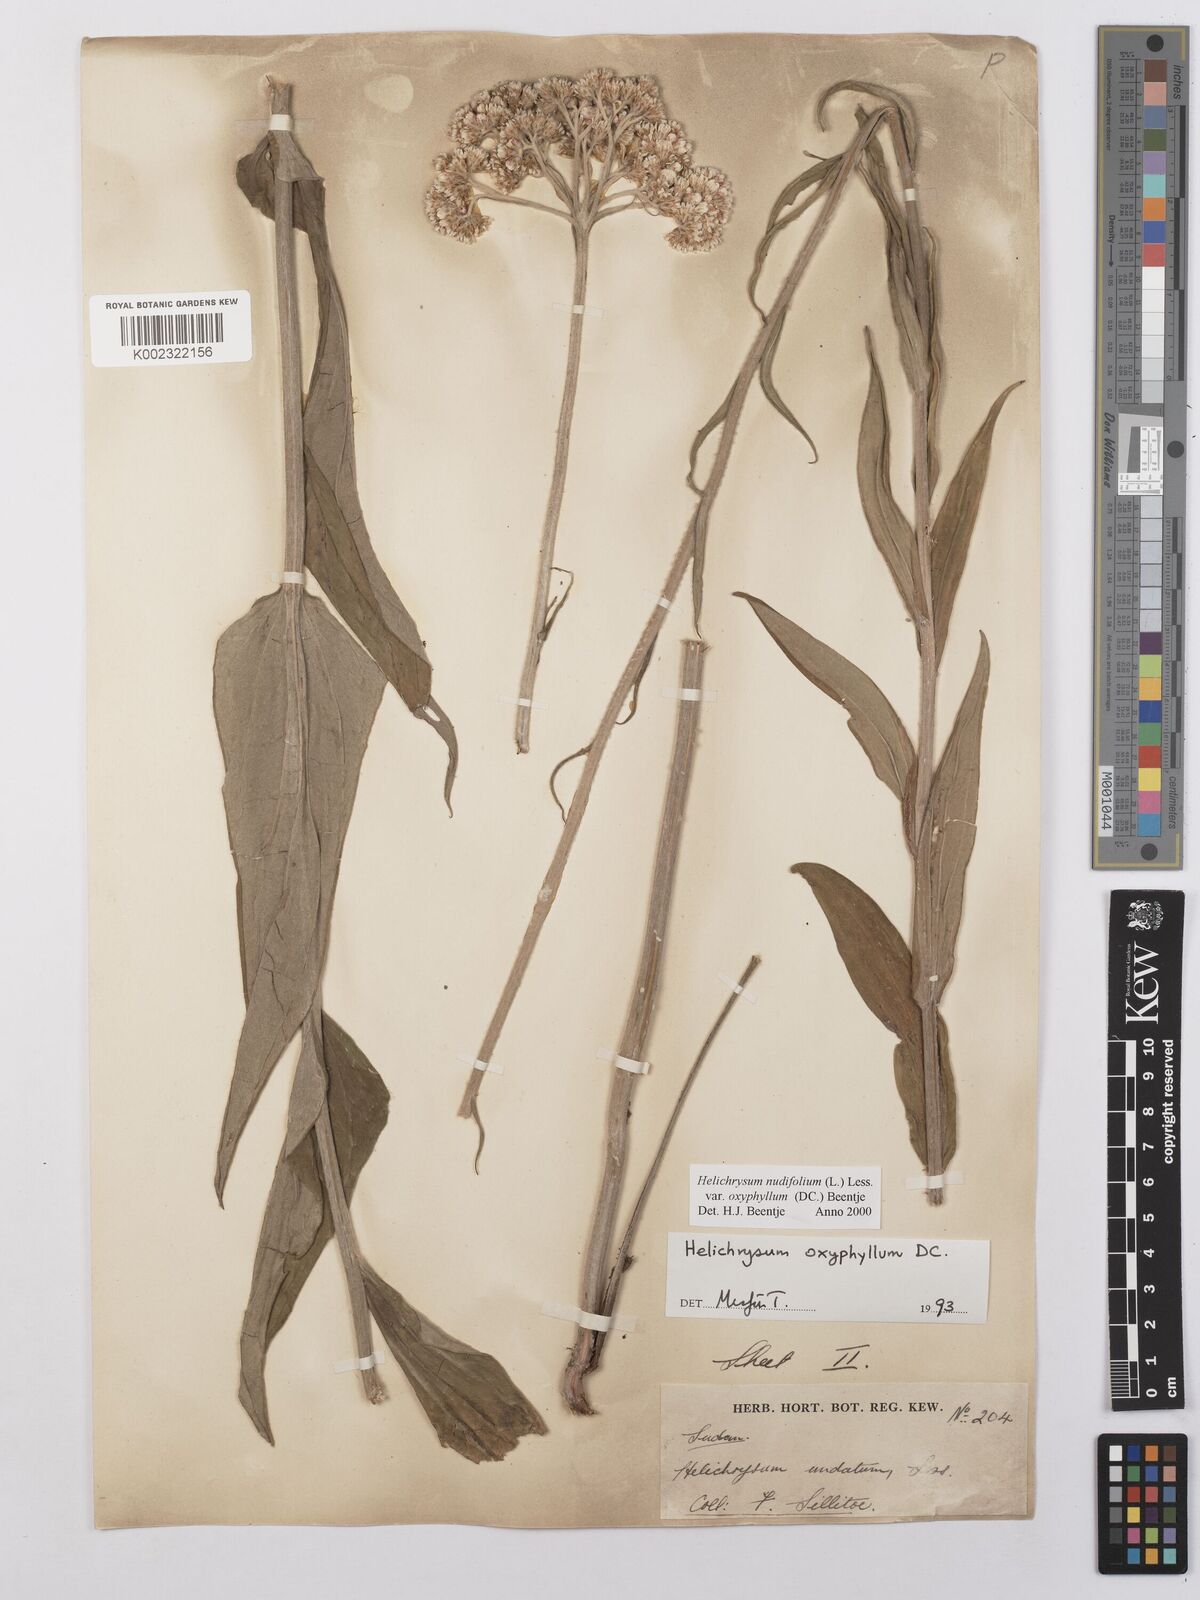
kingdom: Plantae
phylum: Tracheophyta
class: Magnoliopsida
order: Asterales
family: Asteraceae
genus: Helichrysum
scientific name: Helichrysum nudifolium
